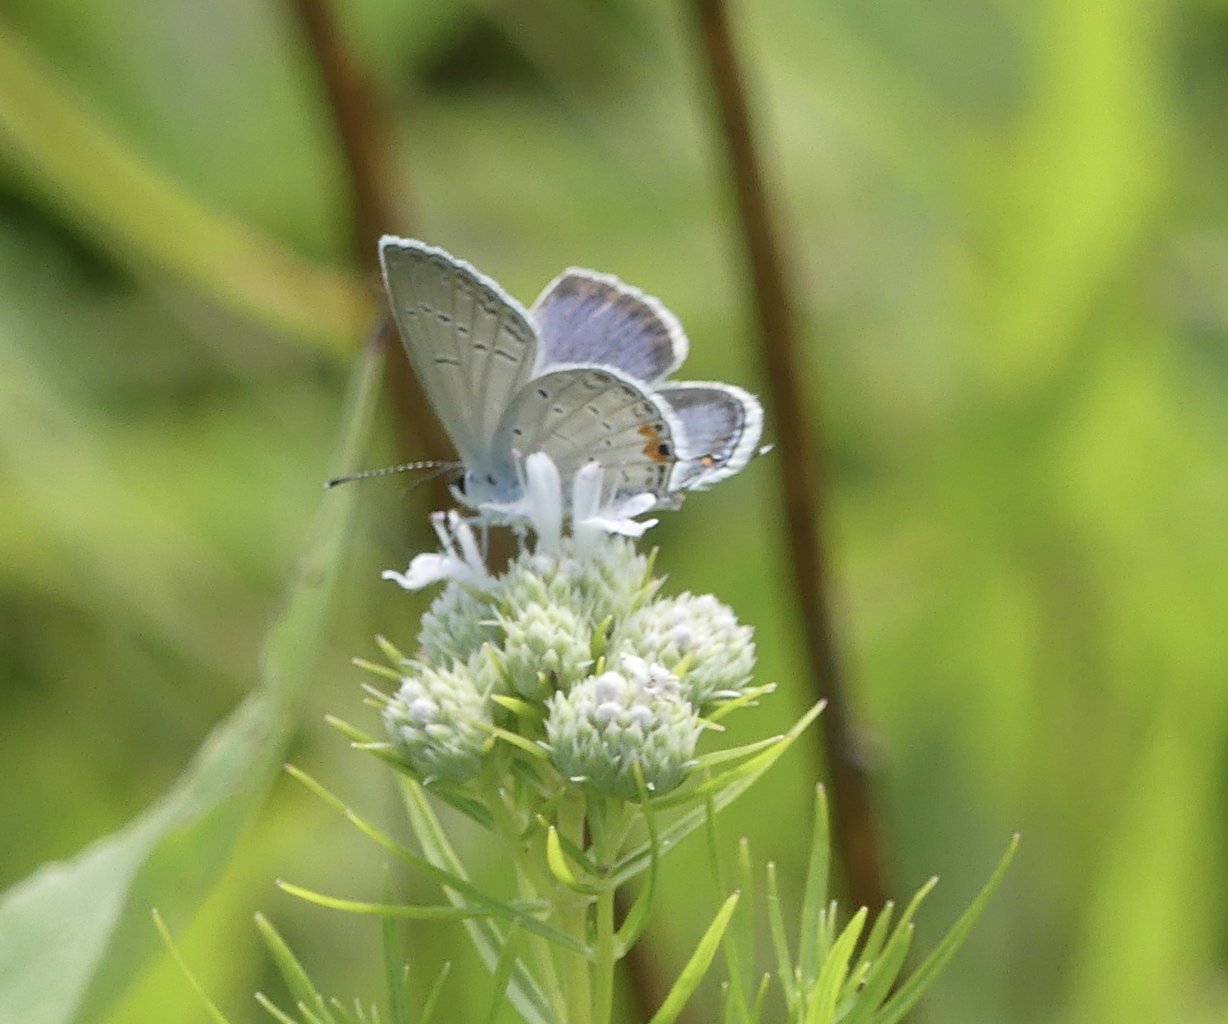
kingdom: Animalia
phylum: Arthropoda
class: Insecta
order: Lepidoptera
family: Lycaenidae
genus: Elkalyce
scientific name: Elkalyce comyntas
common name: Eastern Tailed-Blue
